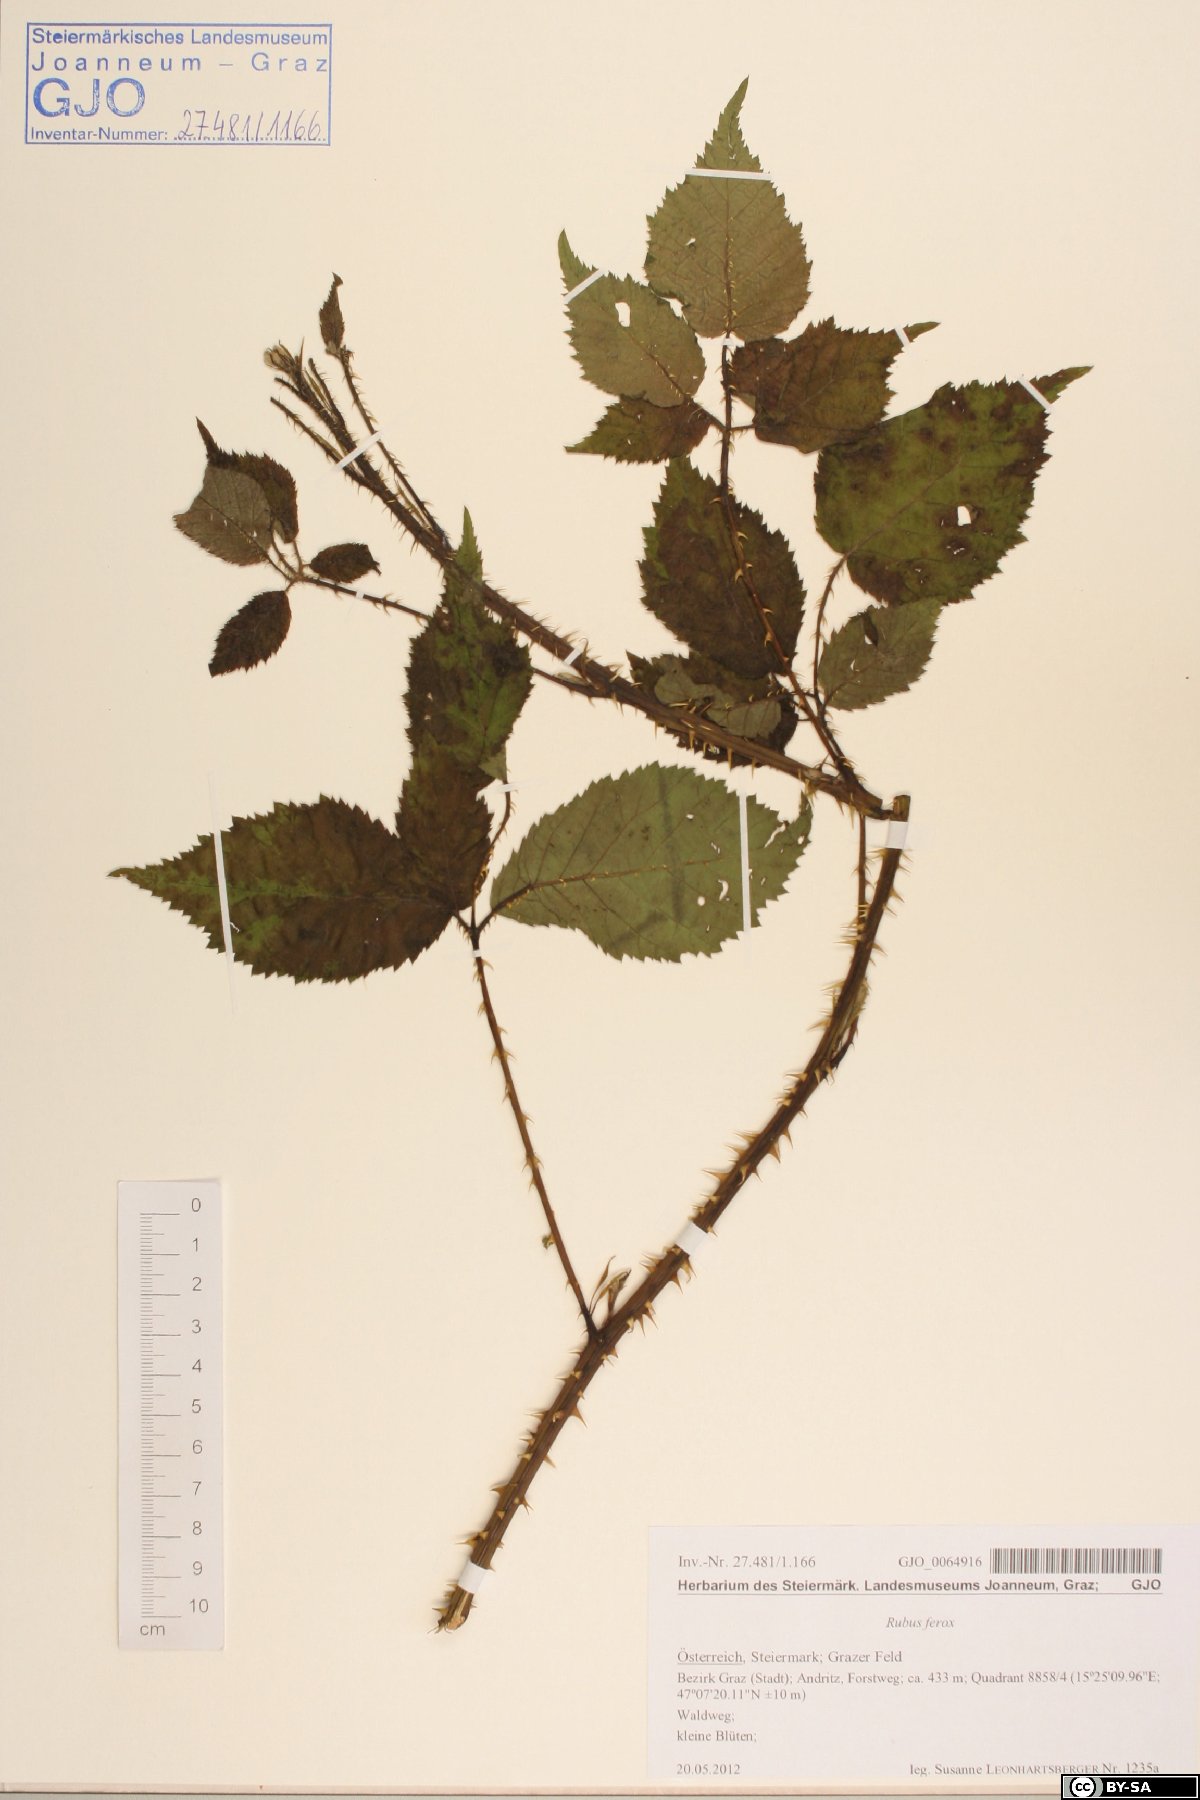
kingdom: Plantae
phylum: Tracheophyta
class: Magnoliopsida
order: Rosales
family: Rosaceae
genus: Rubus
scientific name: Rubus ferox
